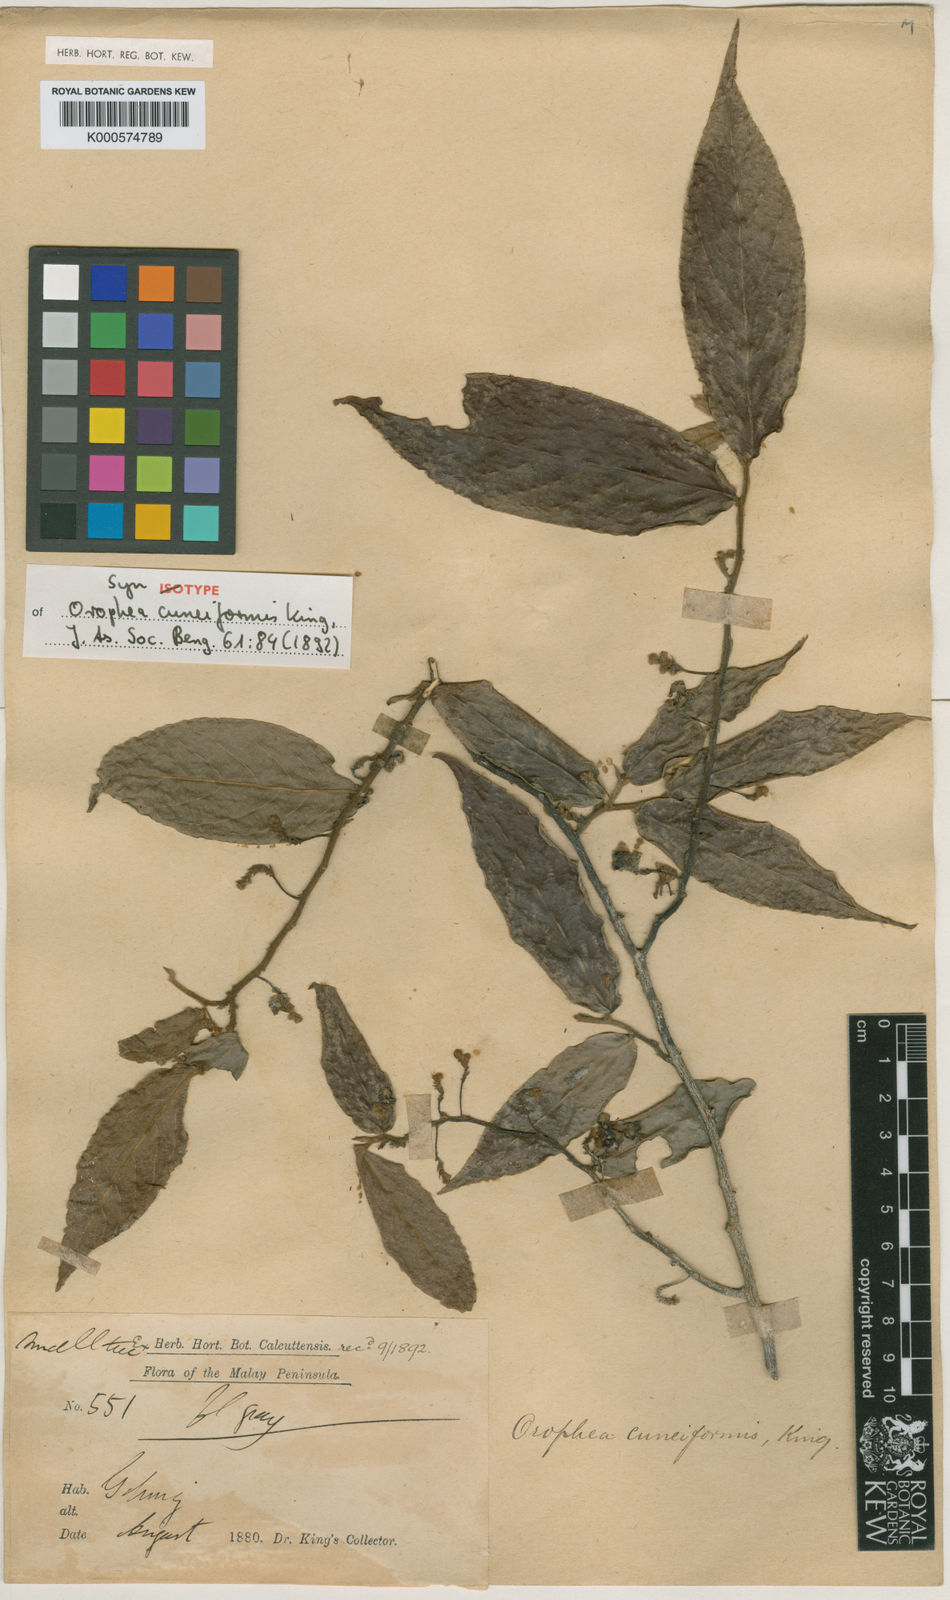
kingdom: Plantae
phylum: Tracheophyta
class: Magnoliopsida
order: Magnoliales
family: Annonaceae
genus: Orophea
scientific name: Orophea cuneiformis
